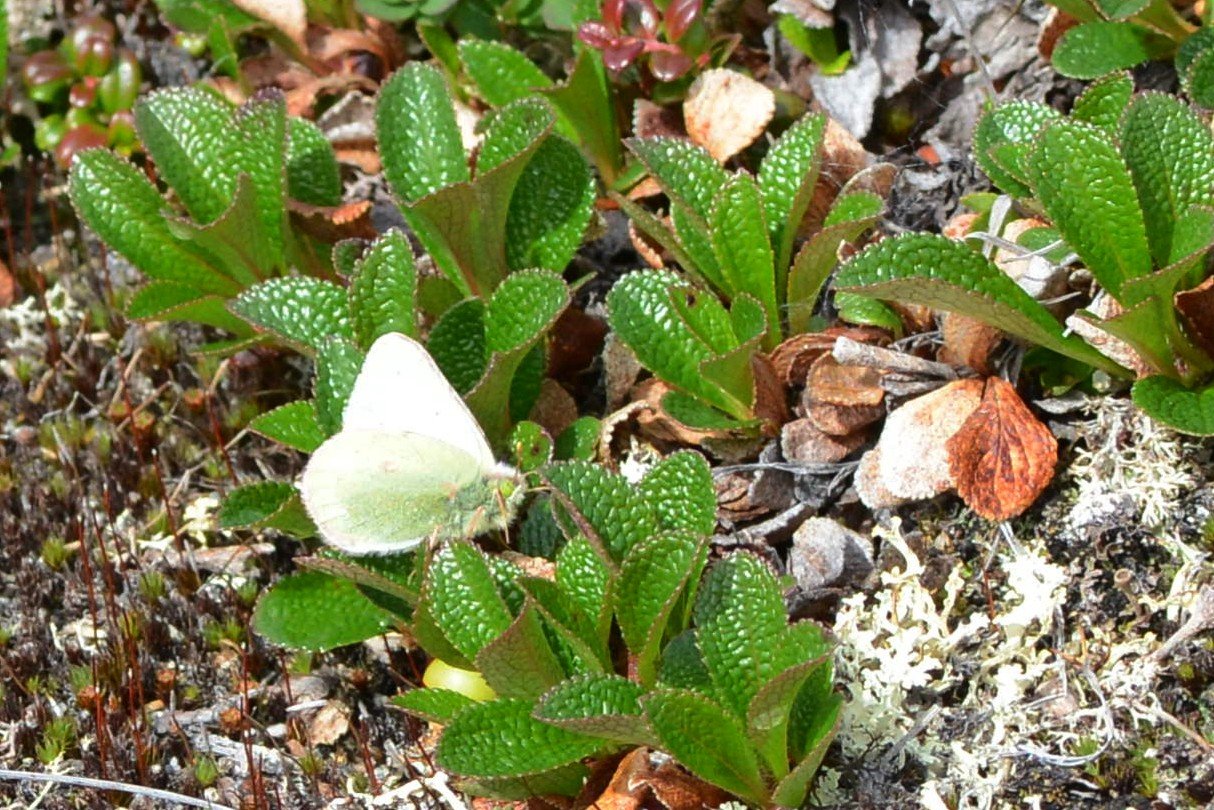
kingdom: Animalia
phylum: Arthropoda
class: Insecta
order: Lepidoptera
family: Pieridae
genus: Colias
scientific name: Colias nastes
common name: Labrador Sulphur
